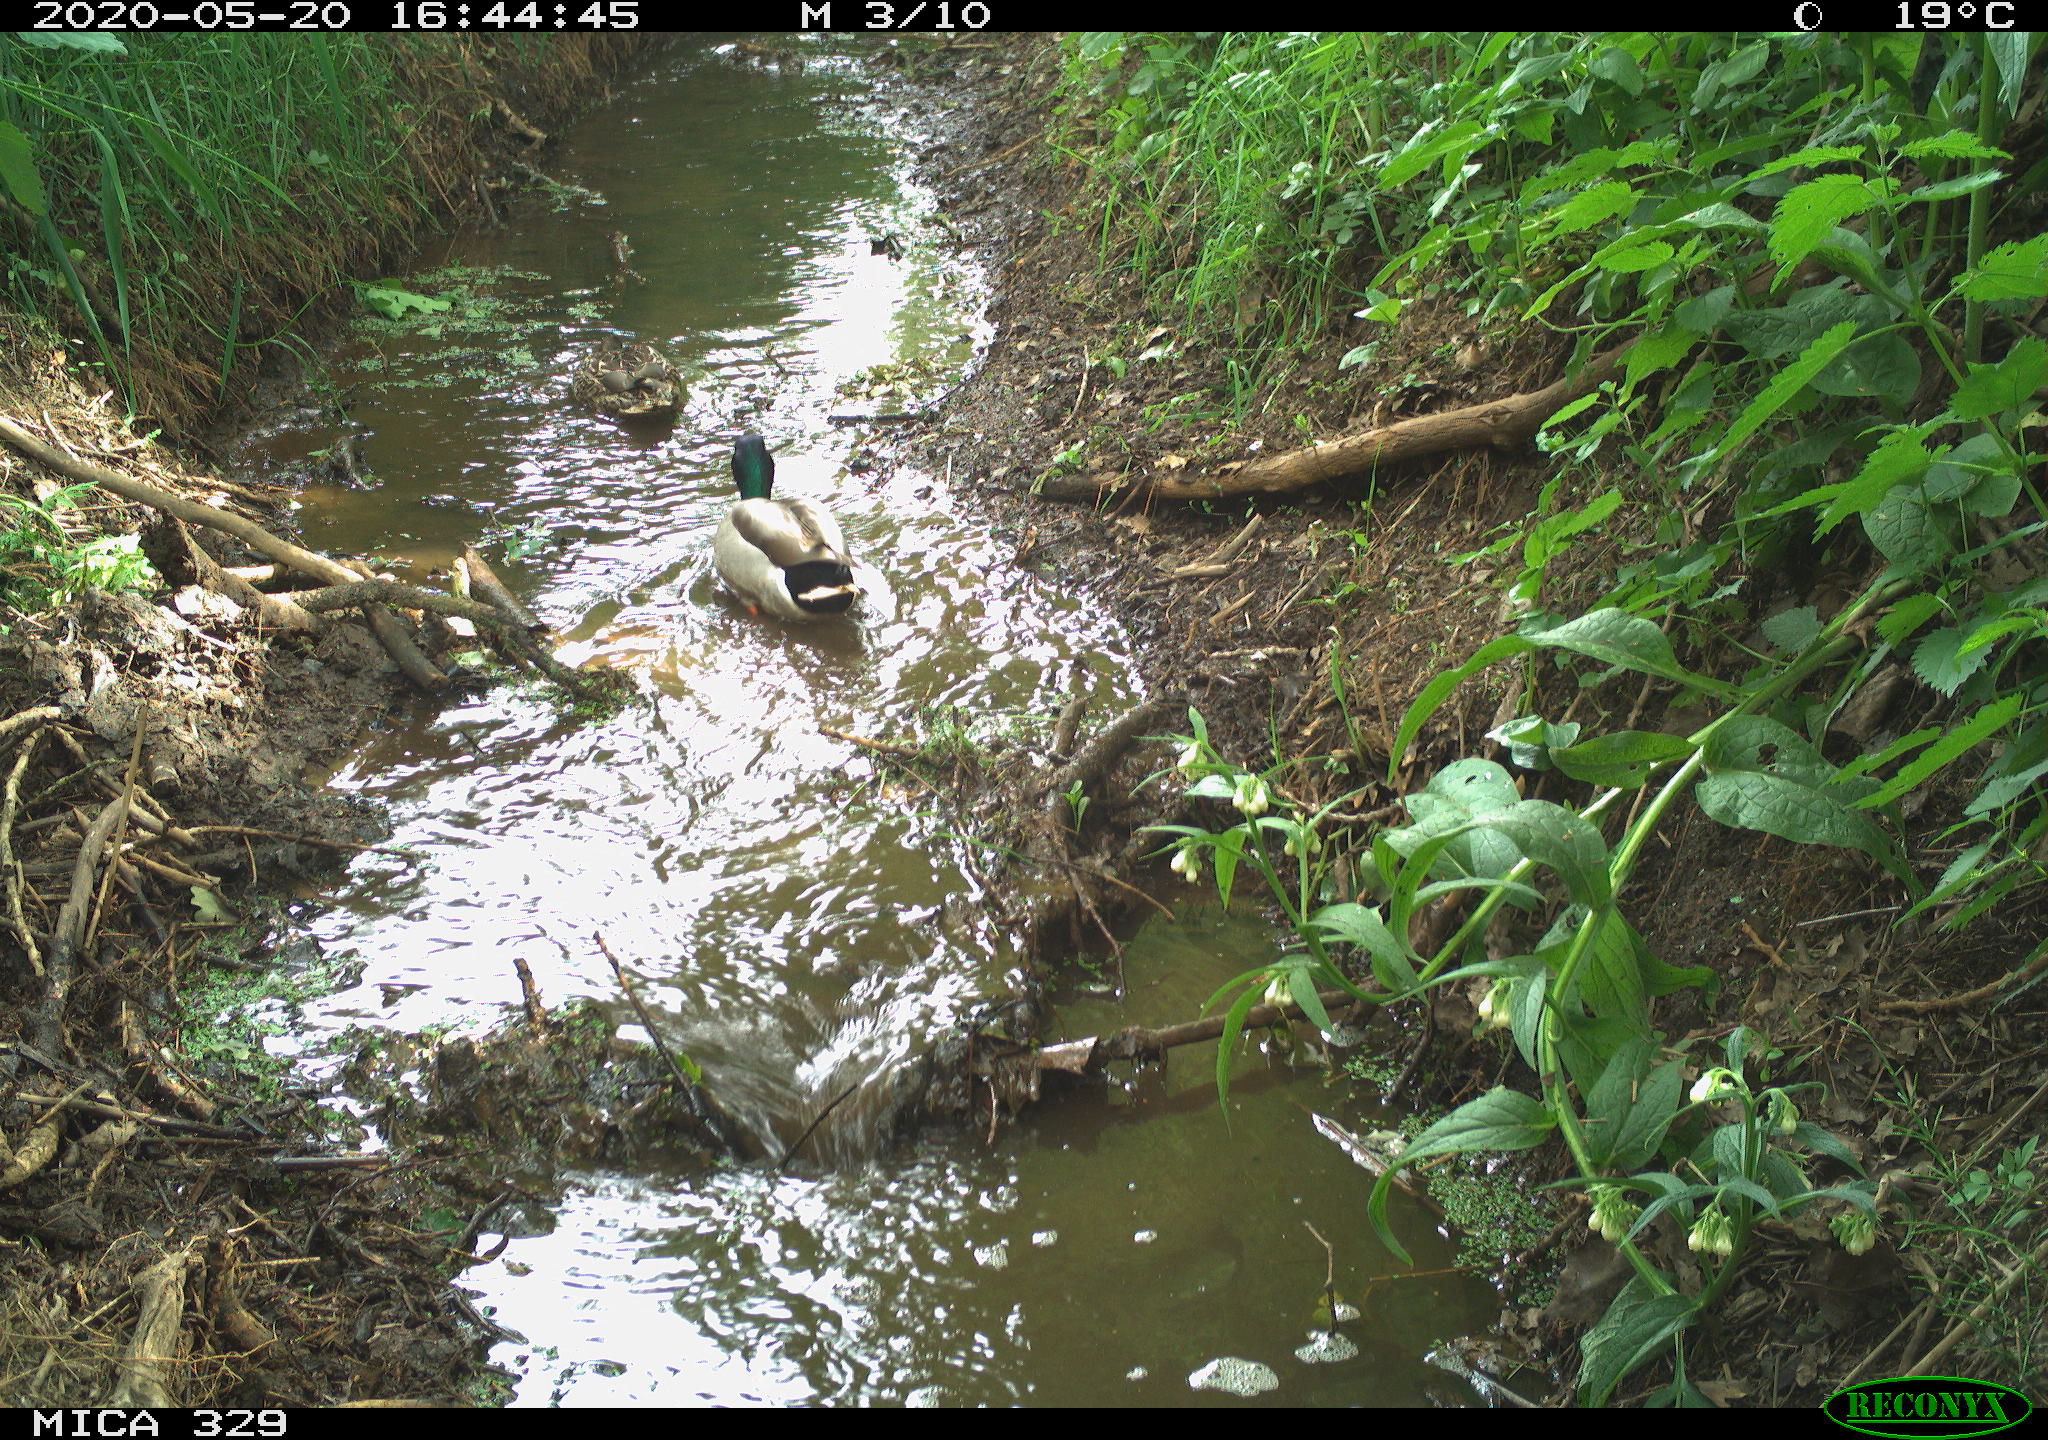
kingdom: Animalia
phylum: Chordata
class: Aves
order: Anseriformes
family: Anatidae
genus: Anas
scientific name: Anas platyrhynchos
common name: Mallard
